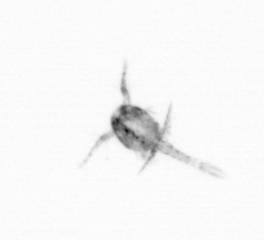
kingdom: Animalia
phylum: Arthropoda
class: Copepoda
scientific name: Copepoda
